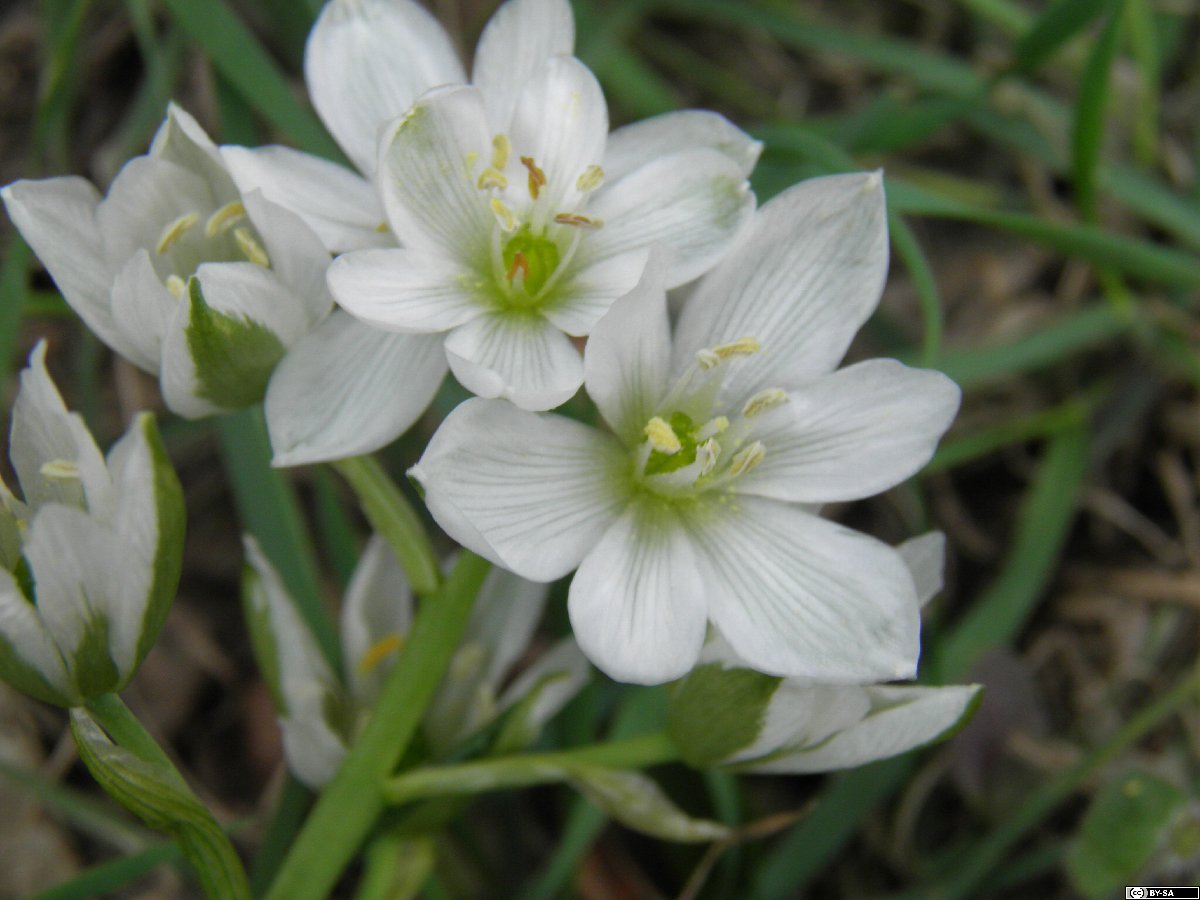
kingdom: Plantae
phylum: Tracheophyta
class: Liliopsida
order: Asparagales
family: Asparagaceae
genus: Ornithogalum
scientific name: Ornithogalum oligophyllum
